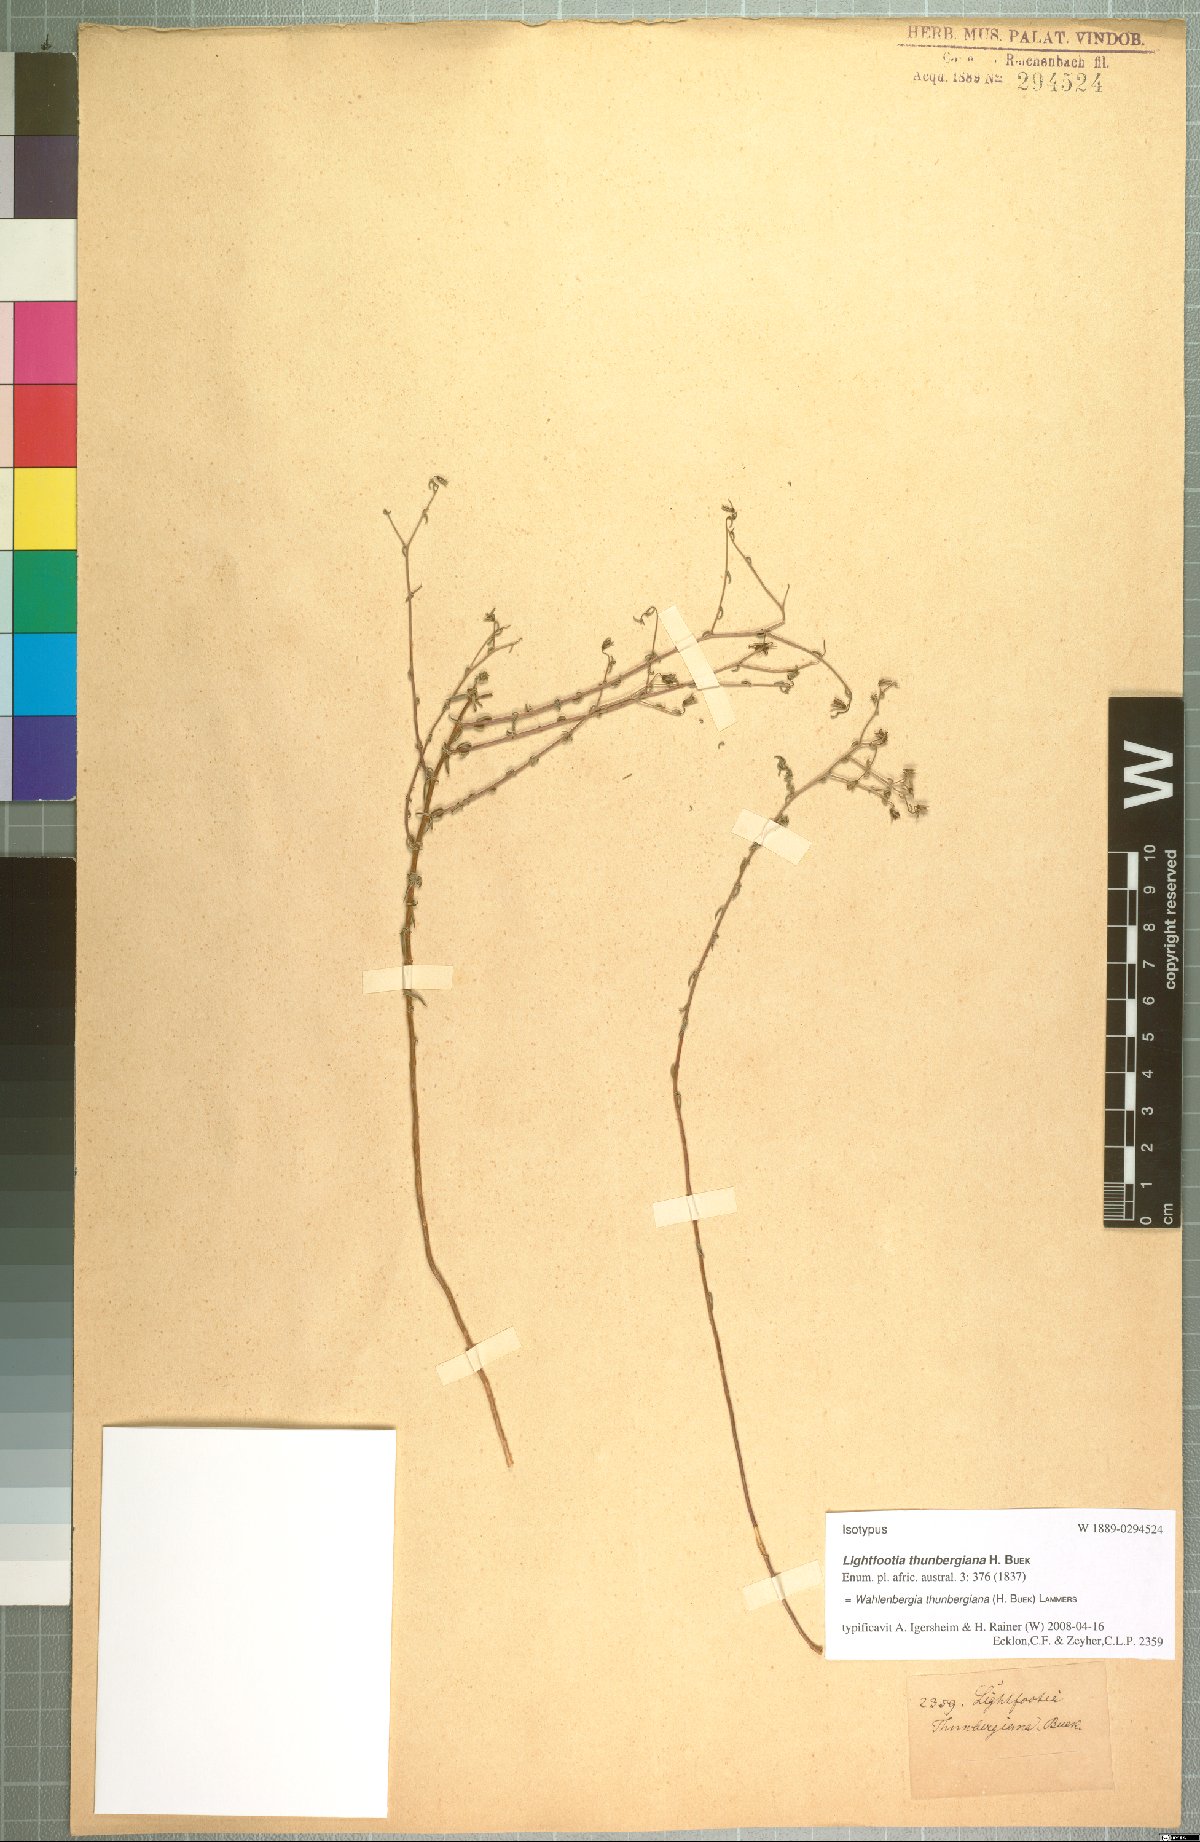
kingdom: Plantae
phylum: Tracheophyta
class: Magnoliopsida
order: Asterales
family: Campanulaceae
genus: Wahlenbergia
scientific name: Wahlenbergia thunbergiana
